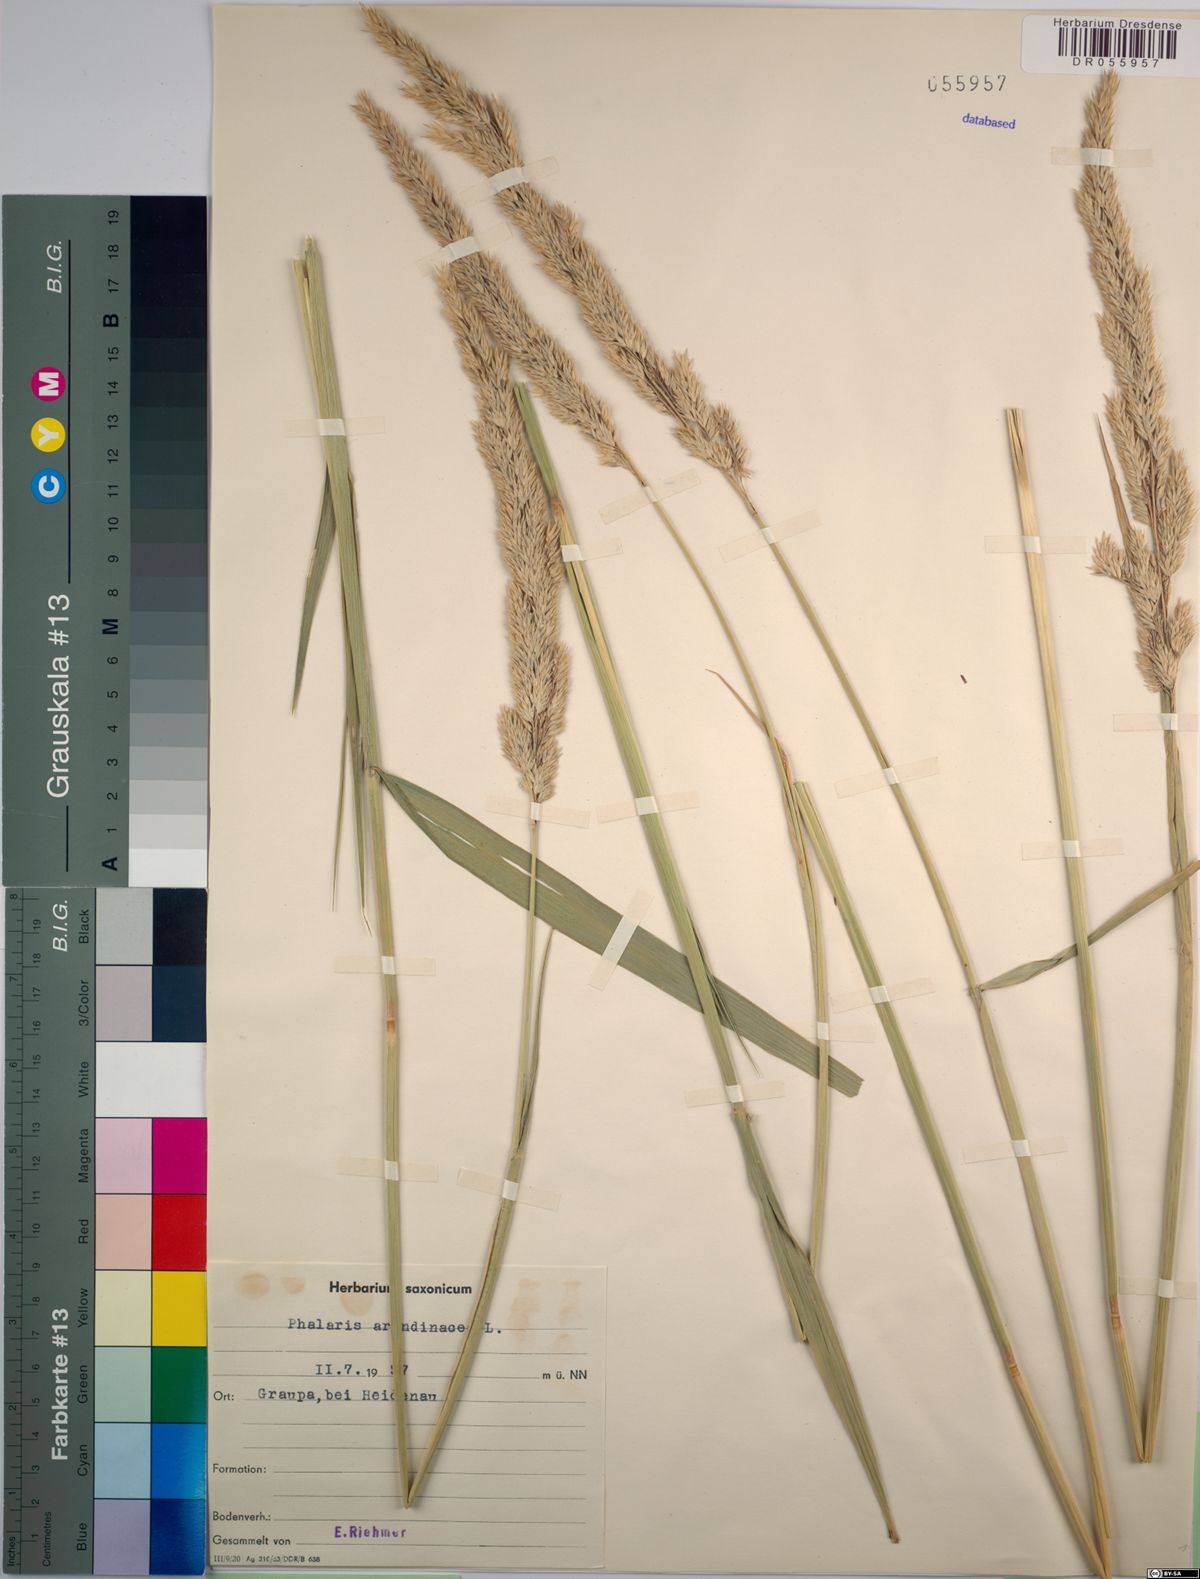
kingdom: Plantae
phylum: Tracheophyta
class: Liliopsida
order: Poales
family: Poaceae
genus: Phalaris
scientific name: Phalaris arundinacea
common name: Reed canary-grass
